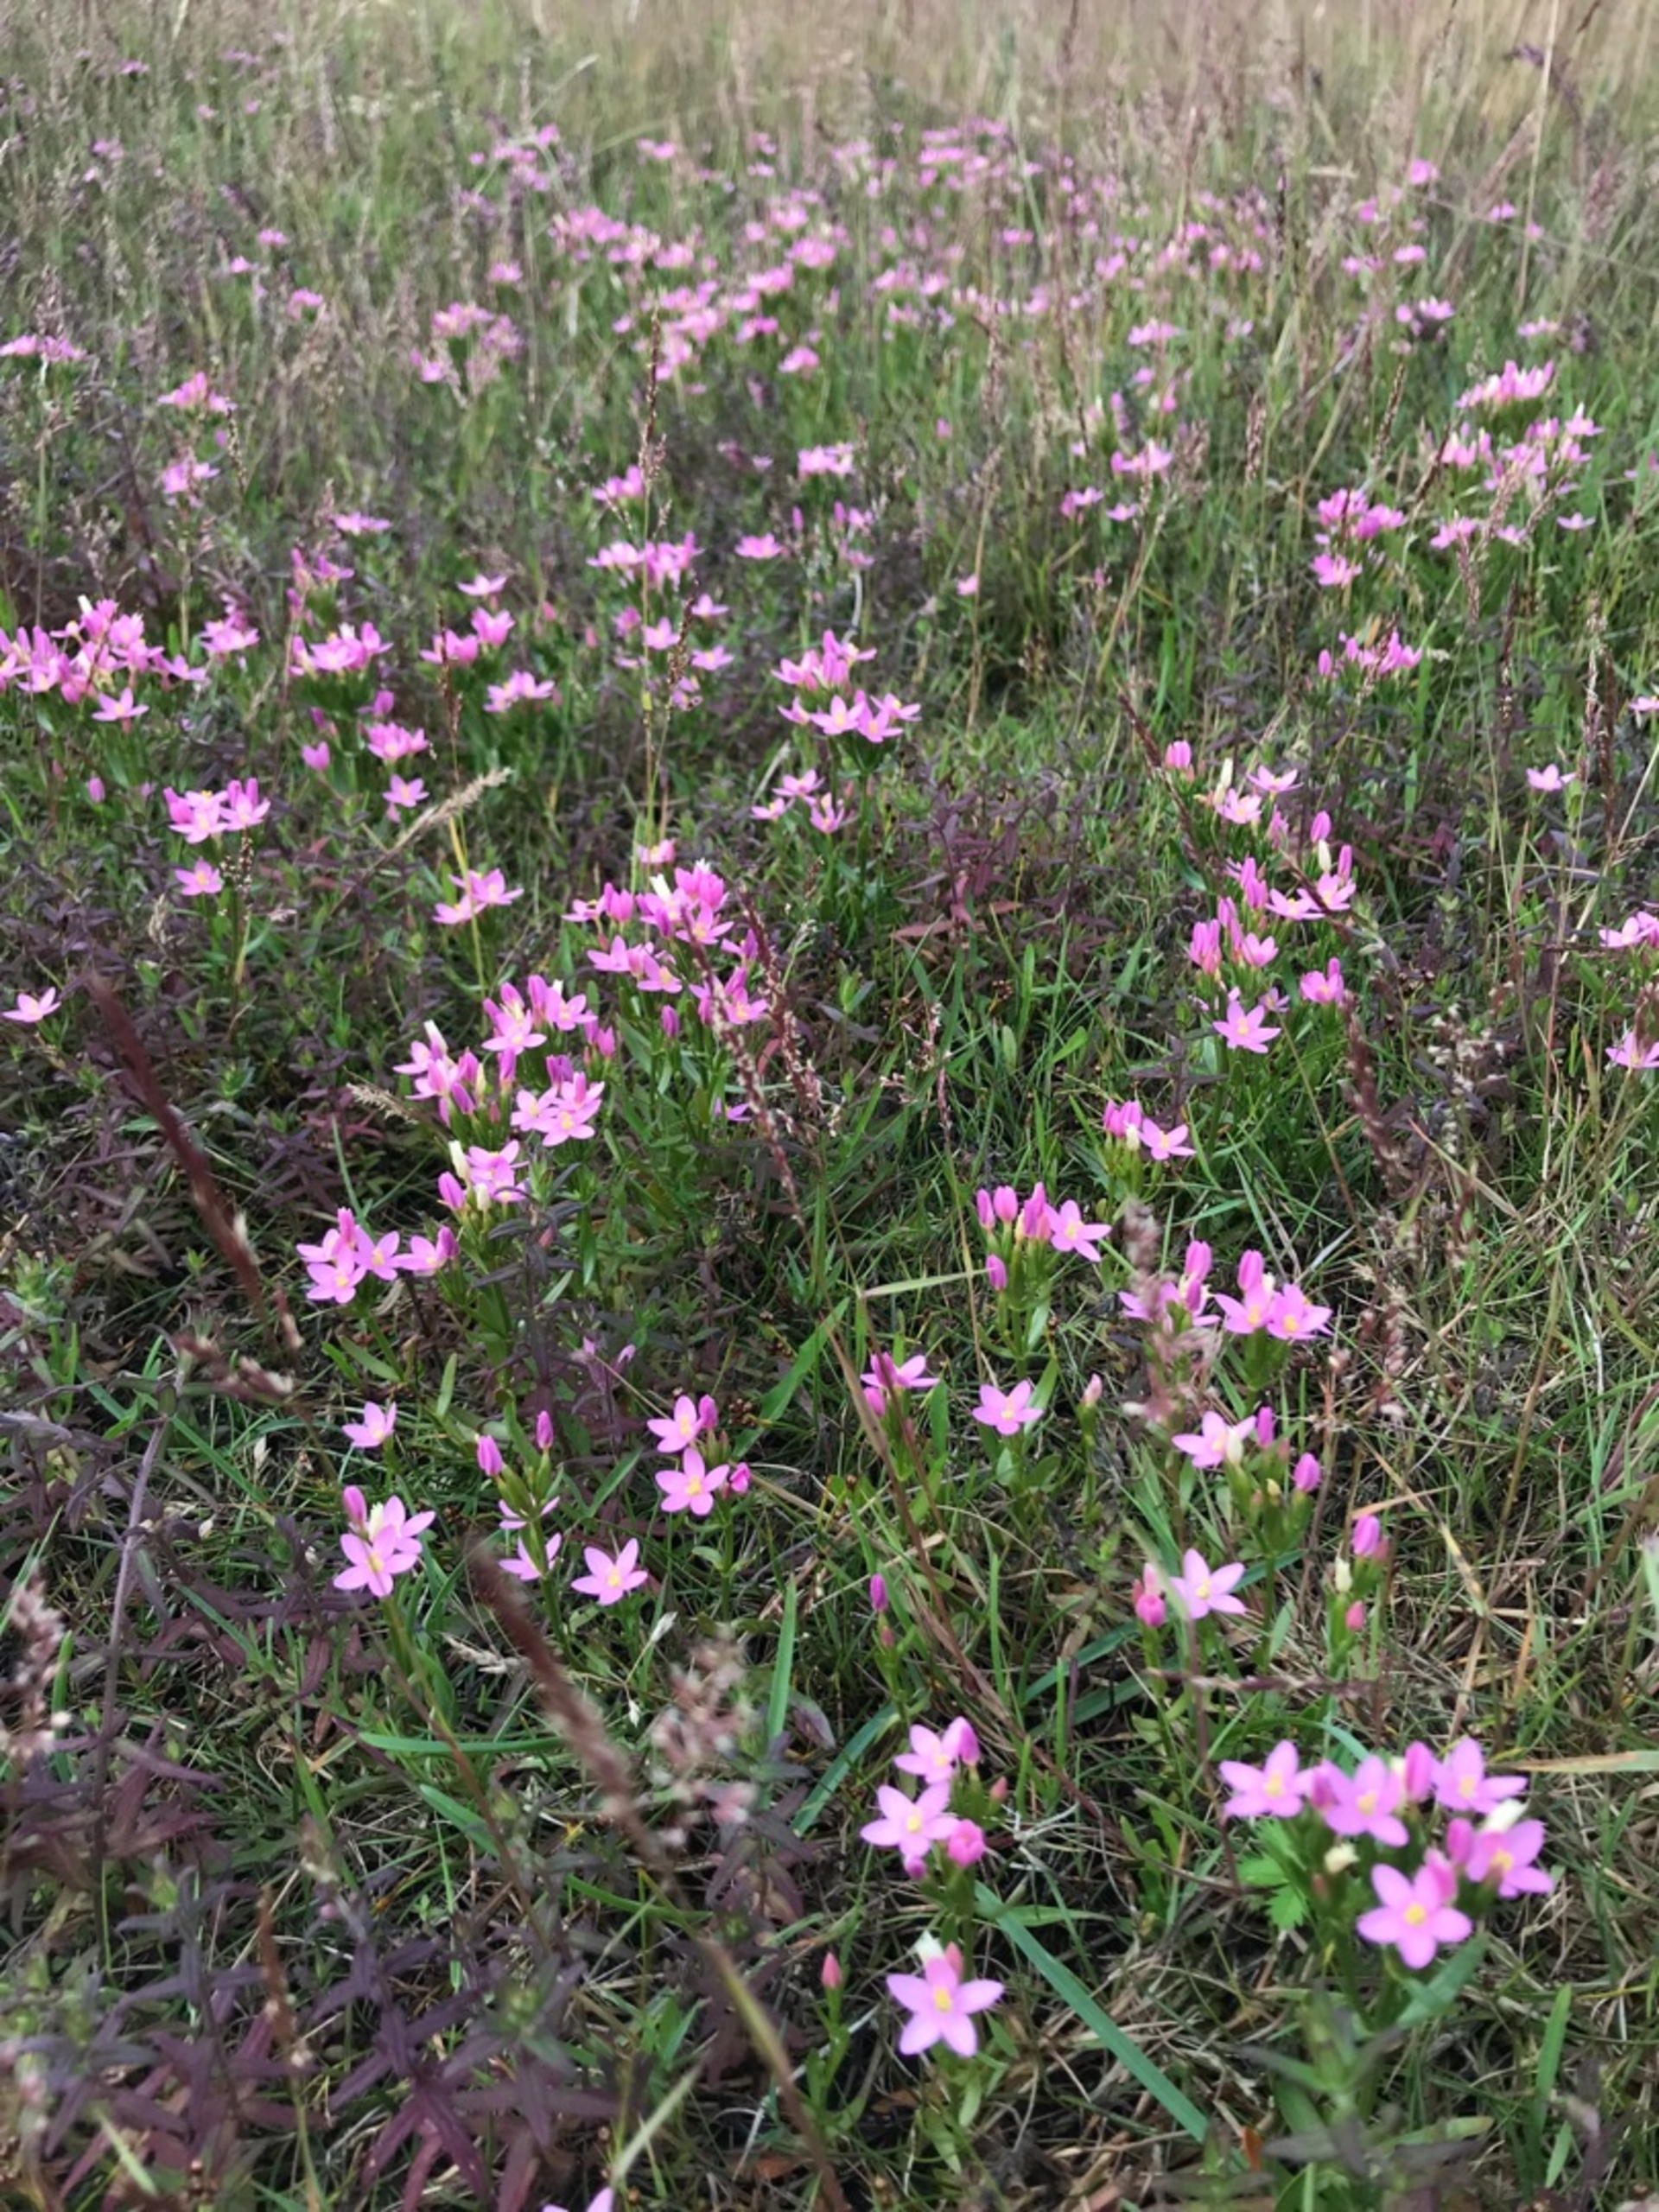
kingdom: Plantae
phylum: Tracheophyta
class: Magnoliopsida
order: Gentianales
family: Gentianaceae
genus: Centaurium
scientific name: Centaurium littorale
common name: Strand-tusindgylden
